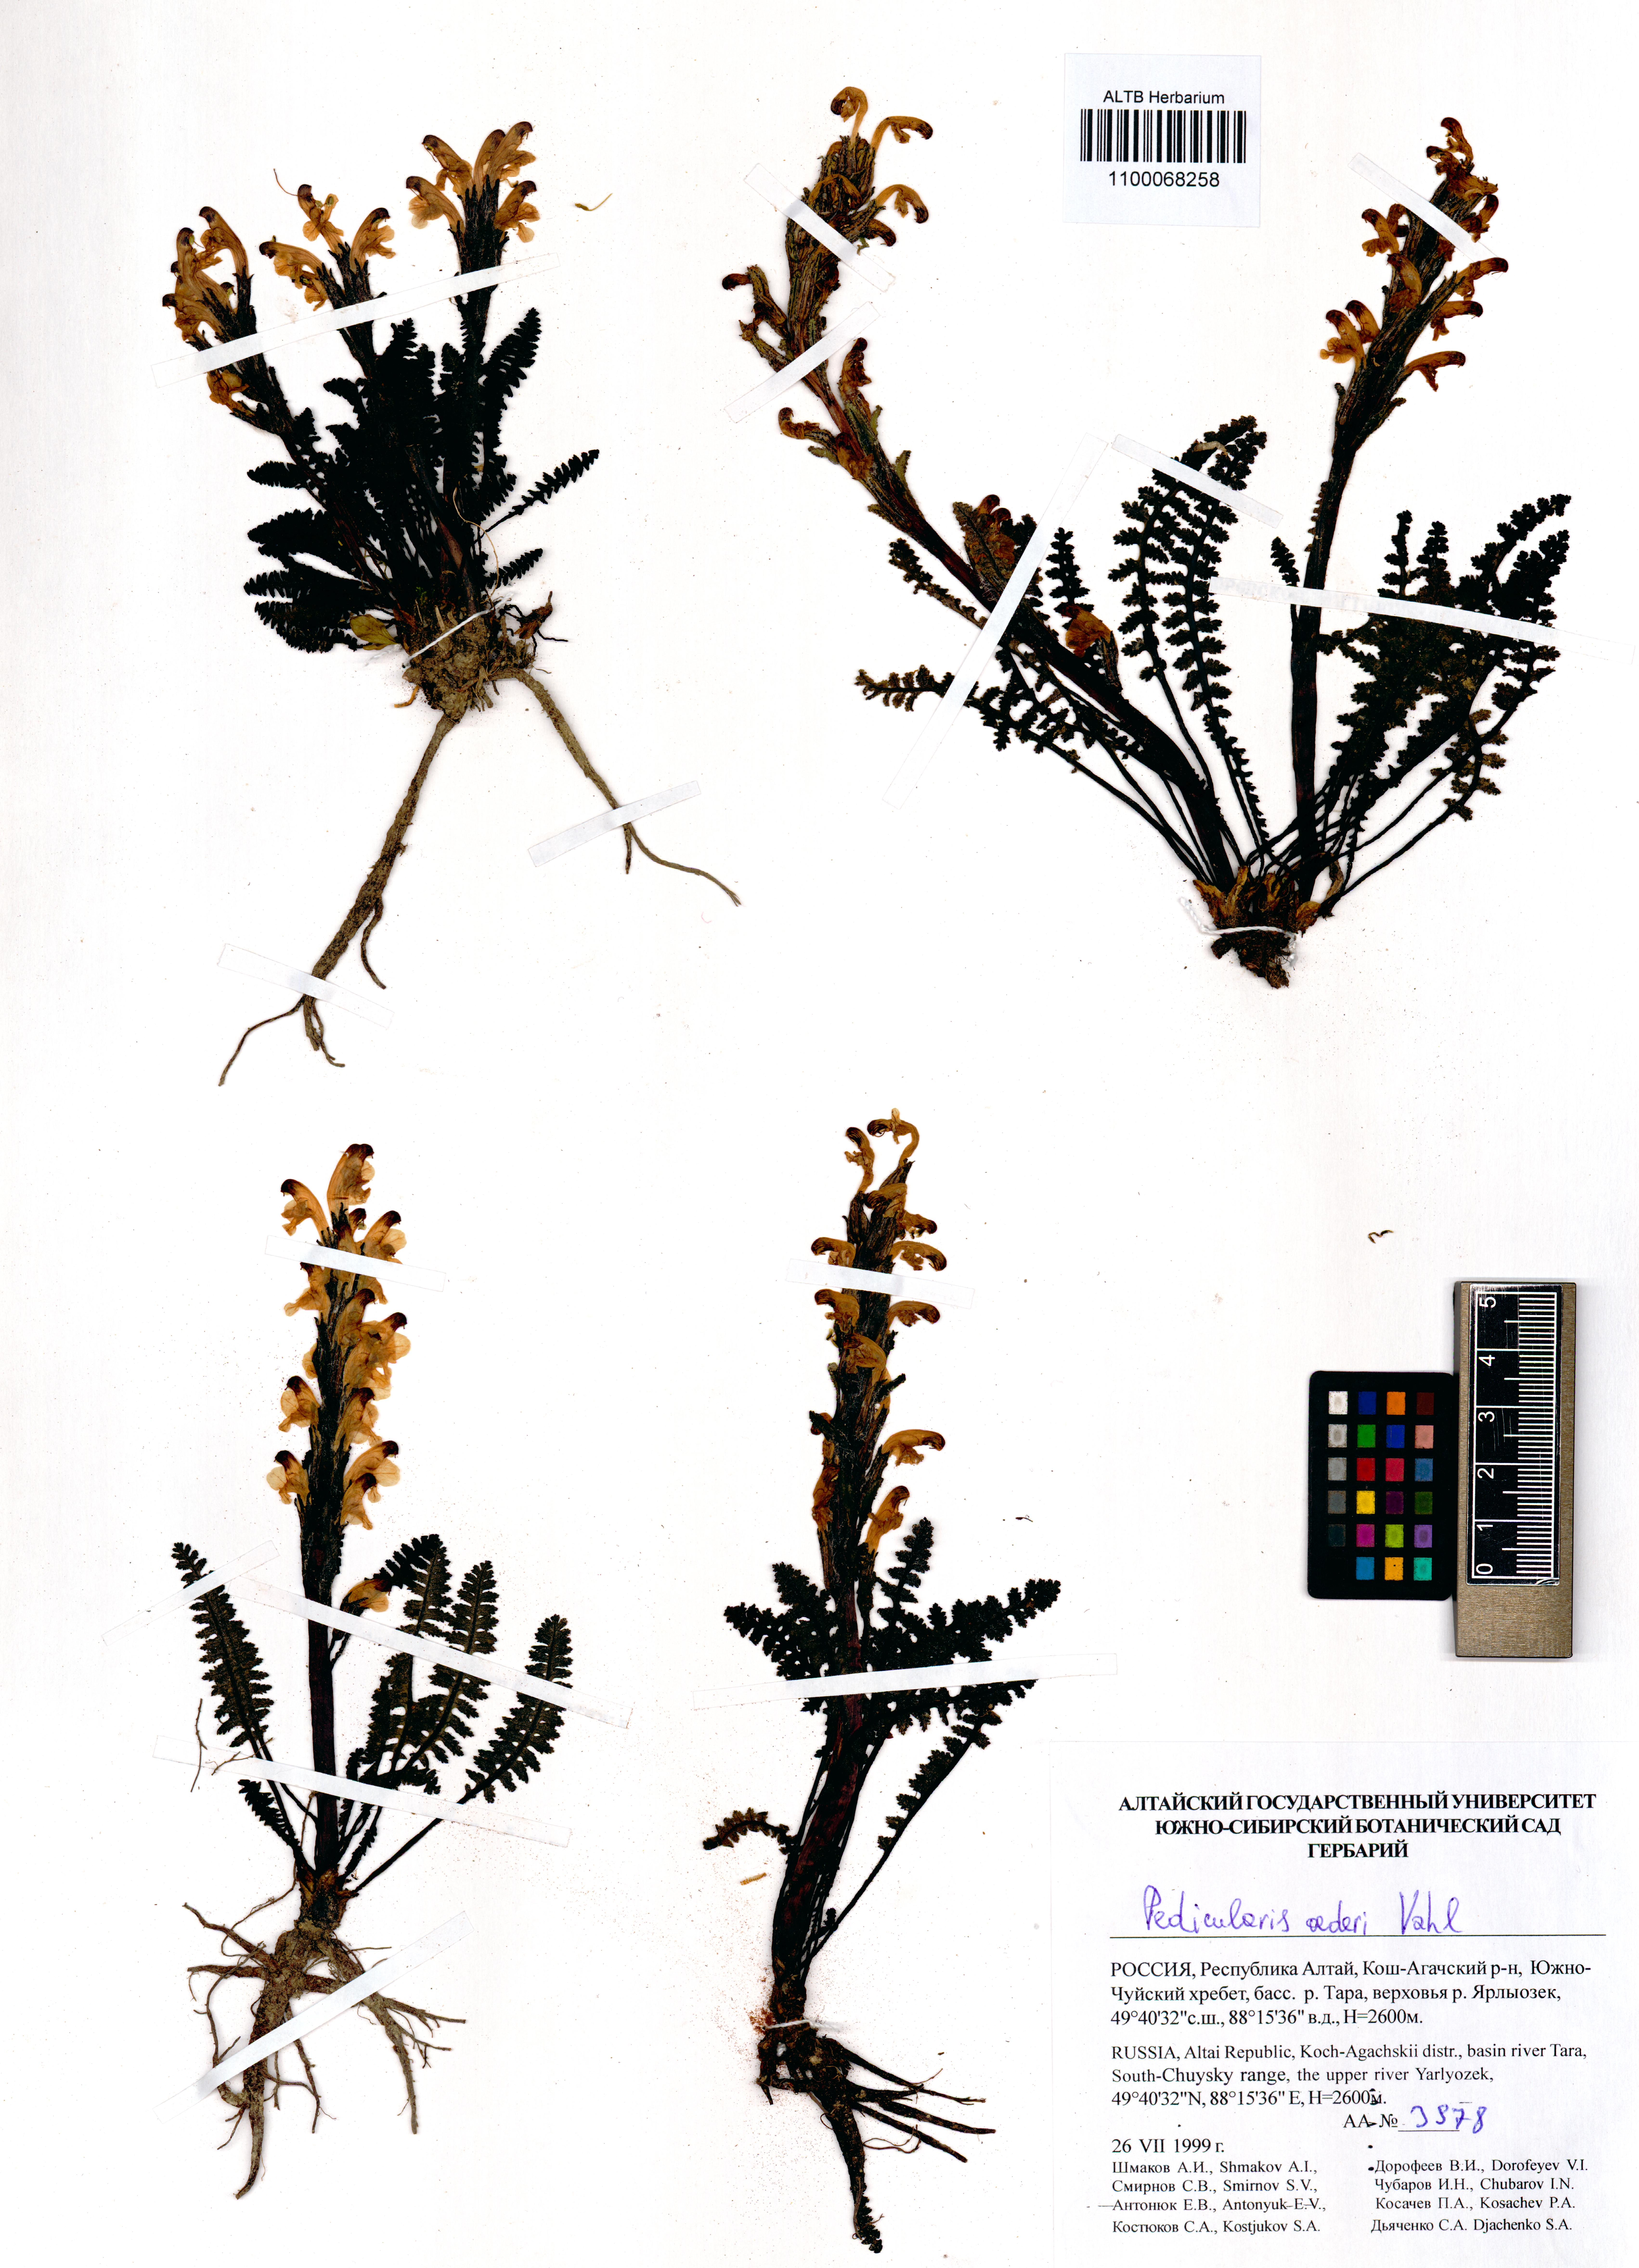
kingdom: Plantae
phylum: Tracheophyta
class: Magnoliopsida
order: Lamiales
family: Orobanchaceae
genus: Pedicularis
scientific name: Pedicularis oederi
